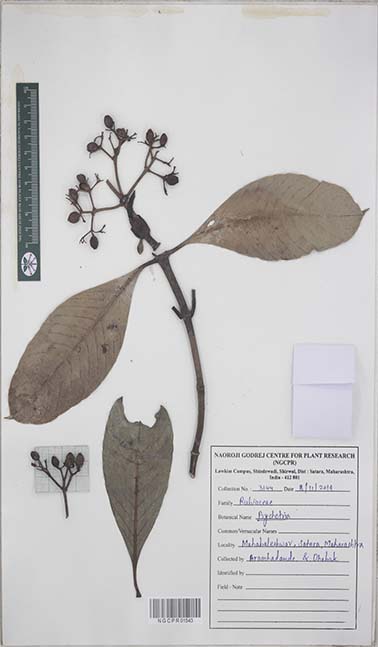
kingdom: Plantae
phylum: Tracheophyta
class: Magnoliopsida
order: Gentianales
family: Rubiaceae
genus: Psychotria
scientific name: Psychotria
